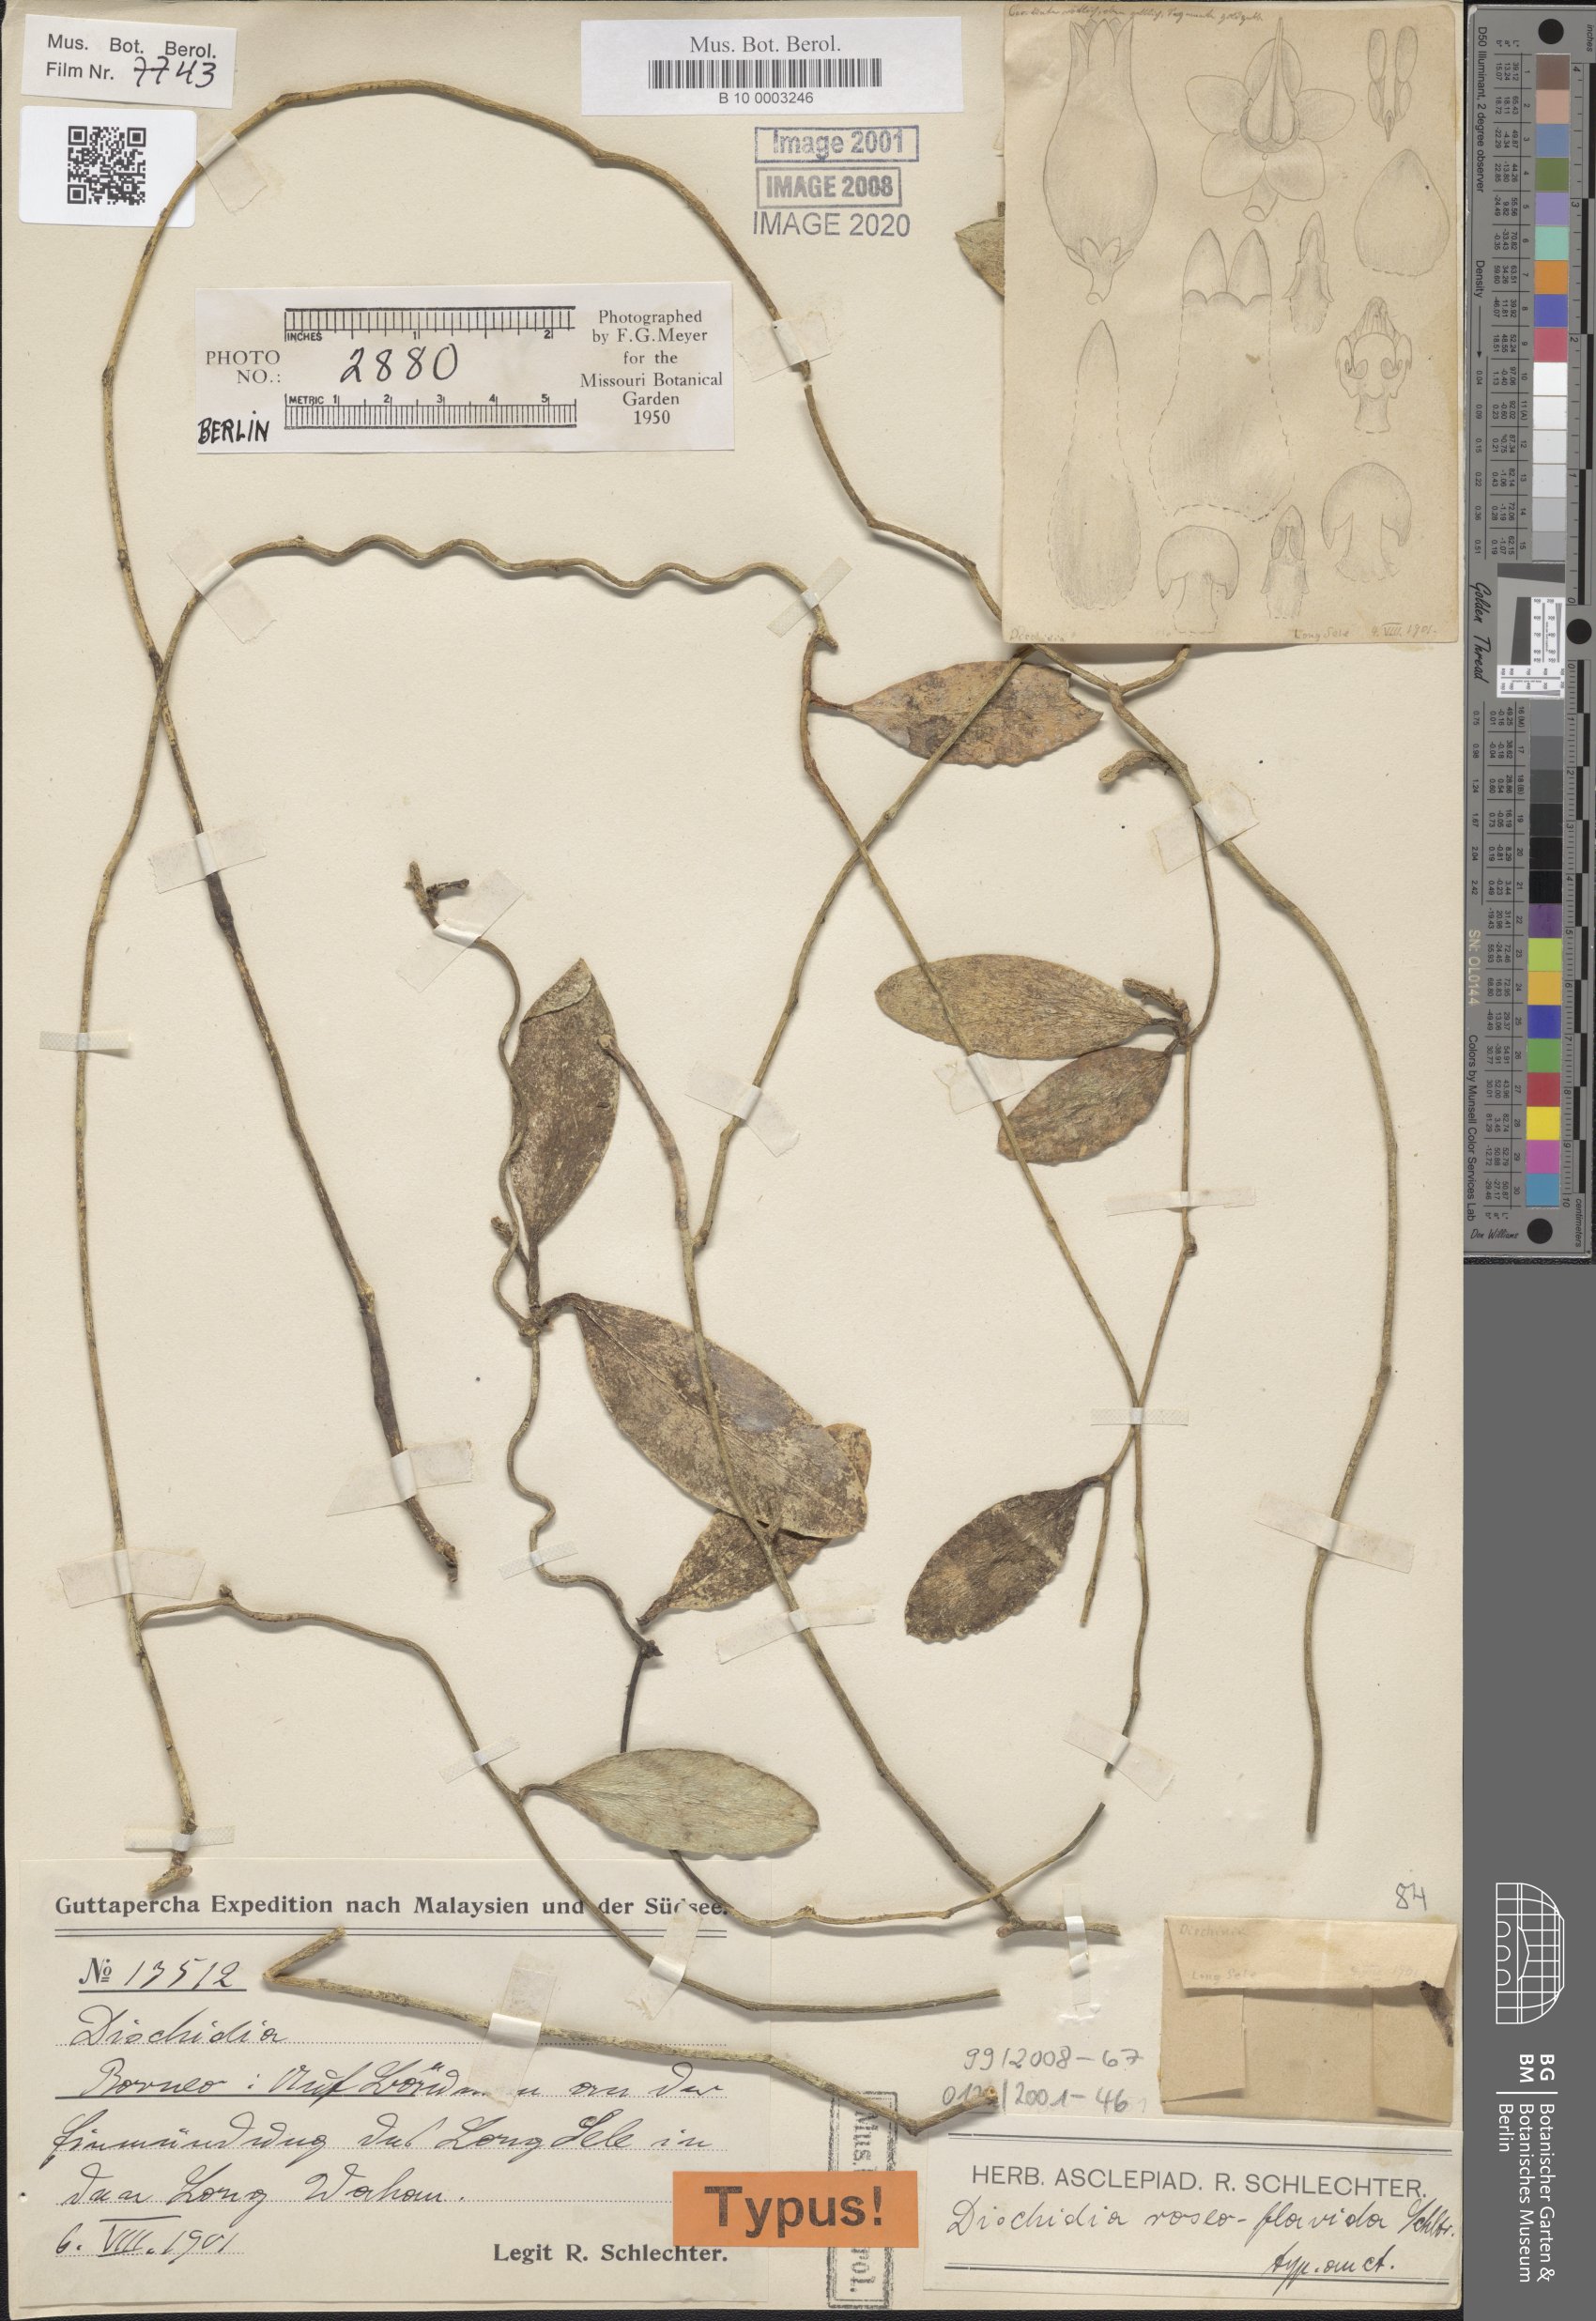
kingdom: Plantae
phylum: Tracheophyta
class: Magnoliopsida
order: Gentianales
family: Apocynaceae
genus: Dischidia
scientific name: Dischidia roseoflavida
